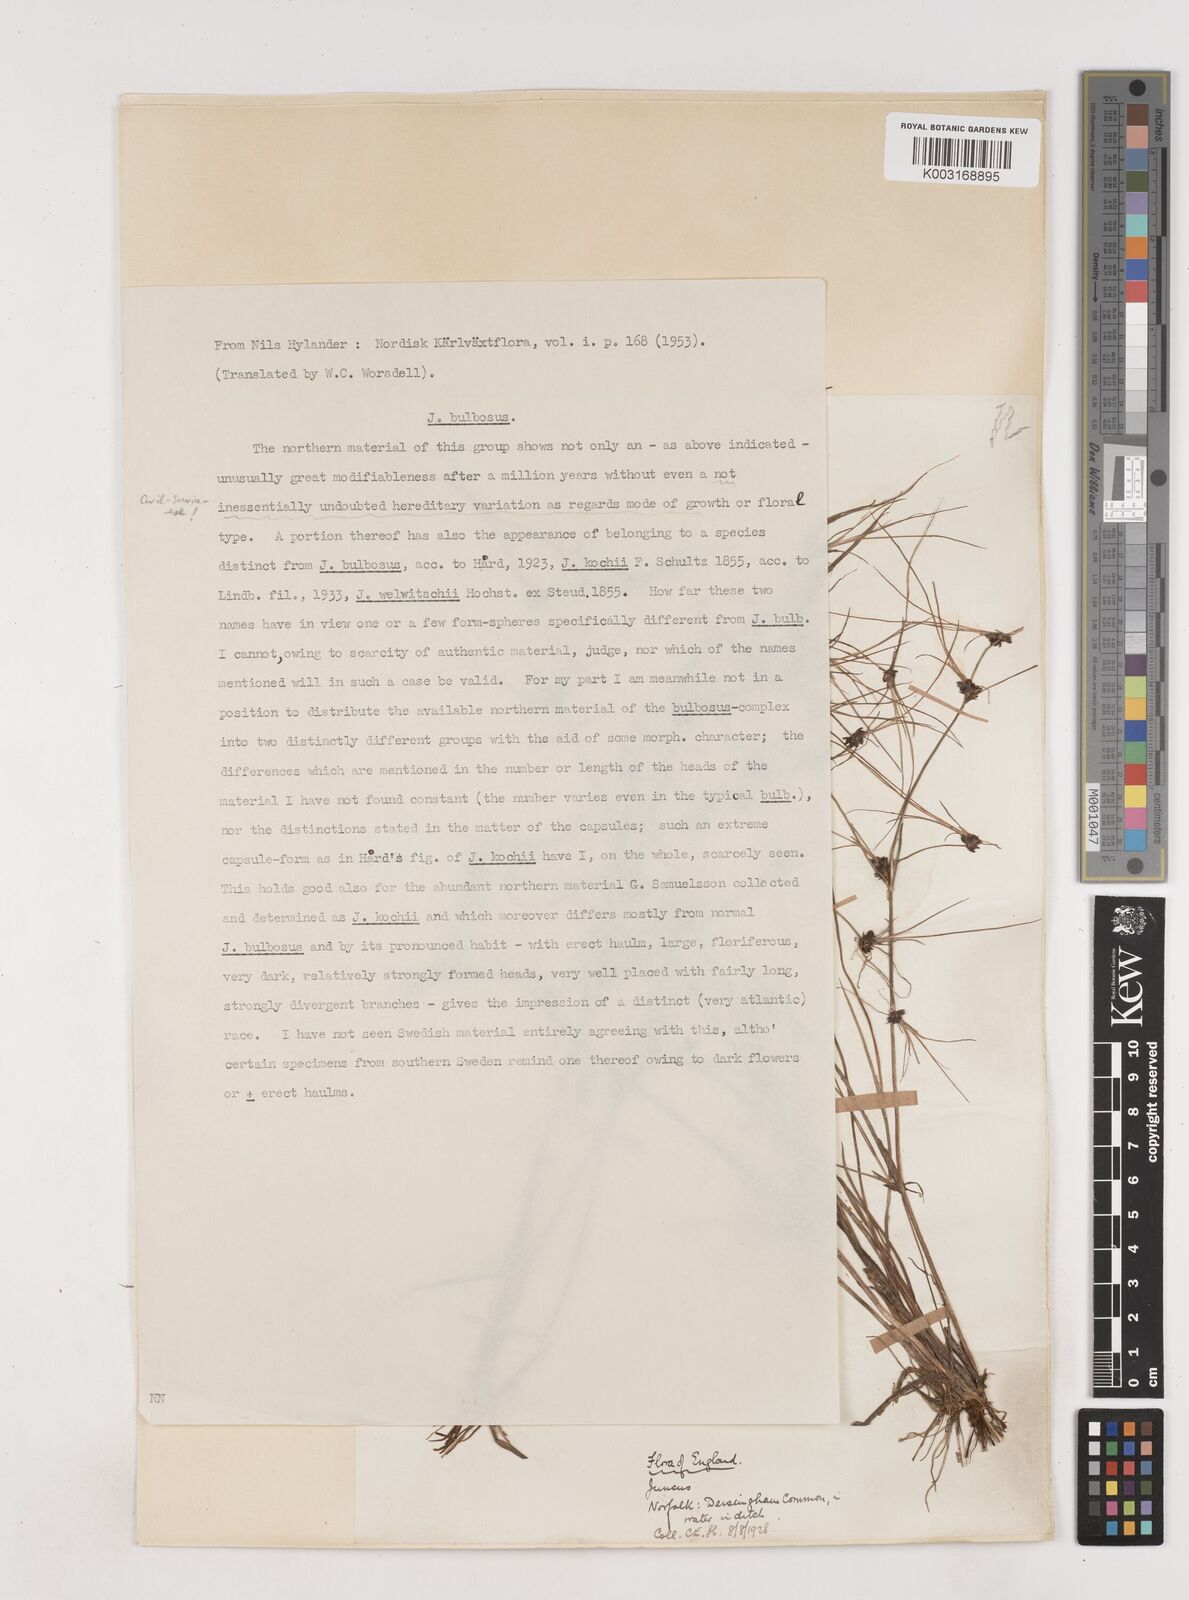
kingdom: Plantae
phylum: Tracheophyta
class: Liliopsida
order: Poales
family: Juncaceae
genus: Juncus
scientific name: Juncus bulbosus
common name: Bulbous rush
